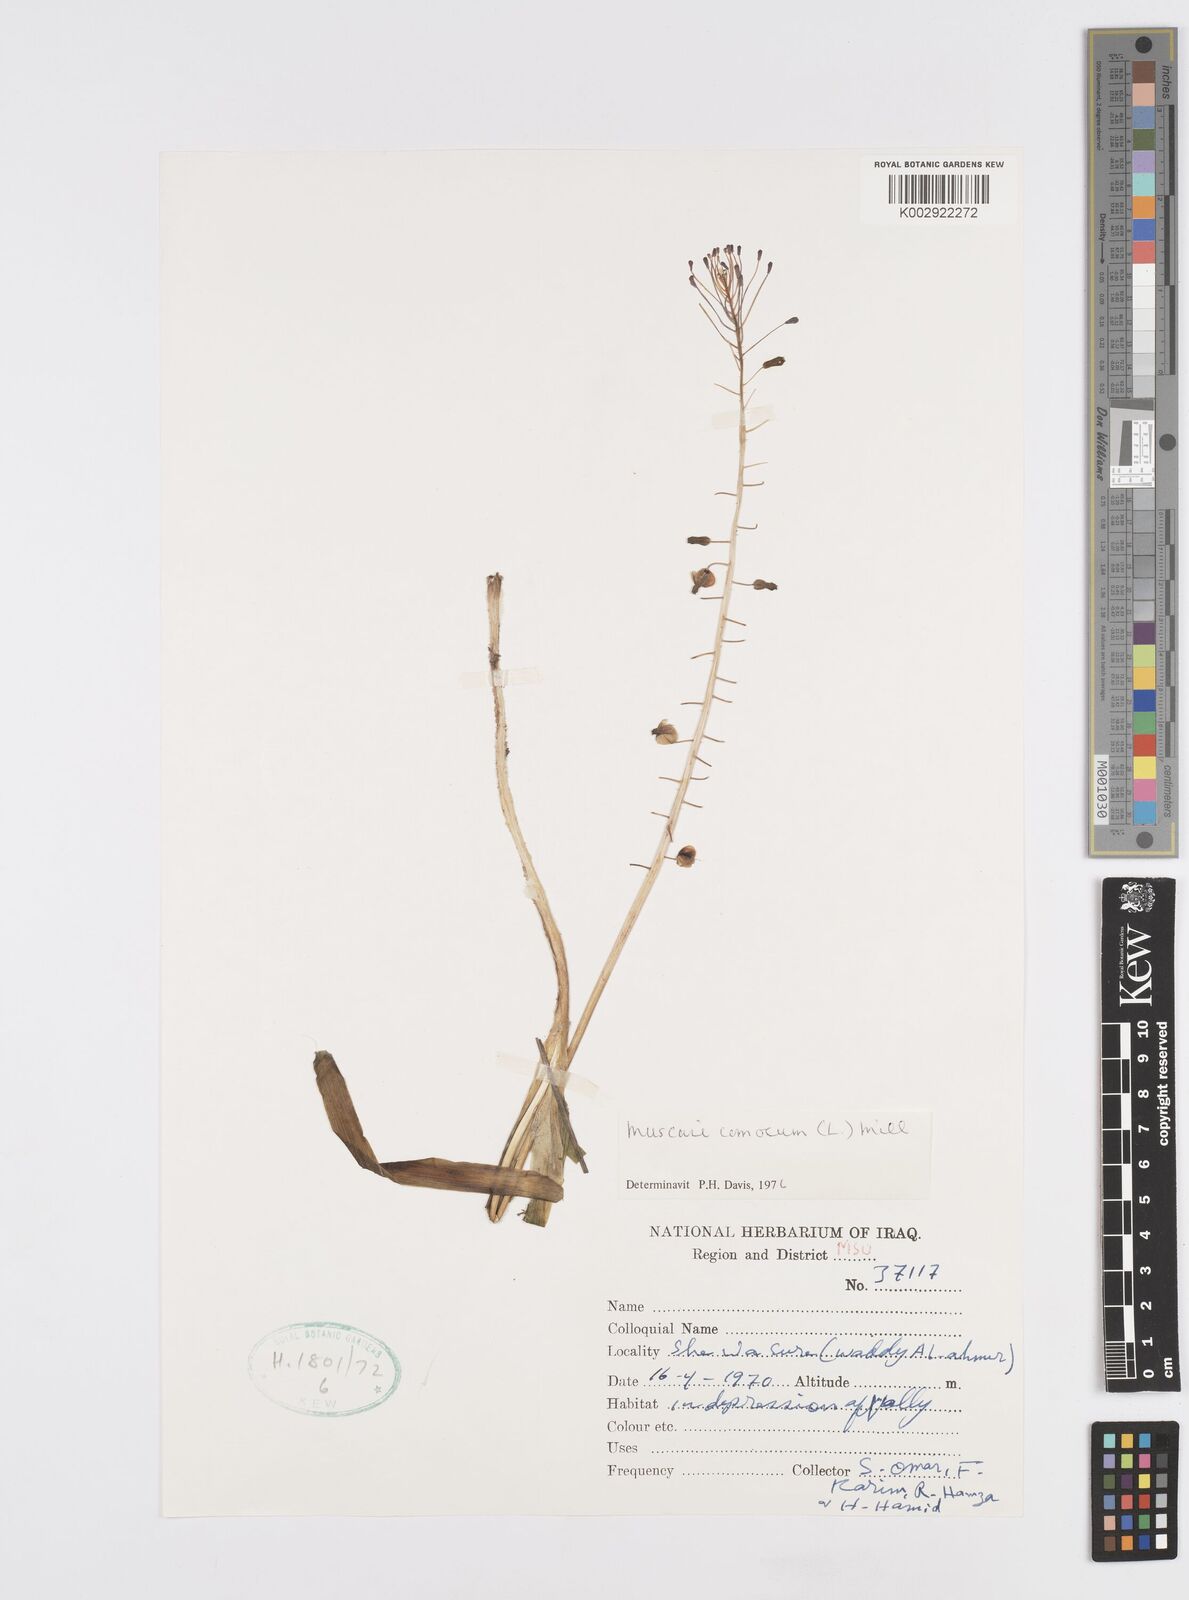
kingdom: Plantae
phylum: Tracheophyta
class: Liliopsida
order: Asparagales
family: Asparagaceae
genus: Muscari
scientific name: Muscari comosum
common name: Tassel hyacinth
